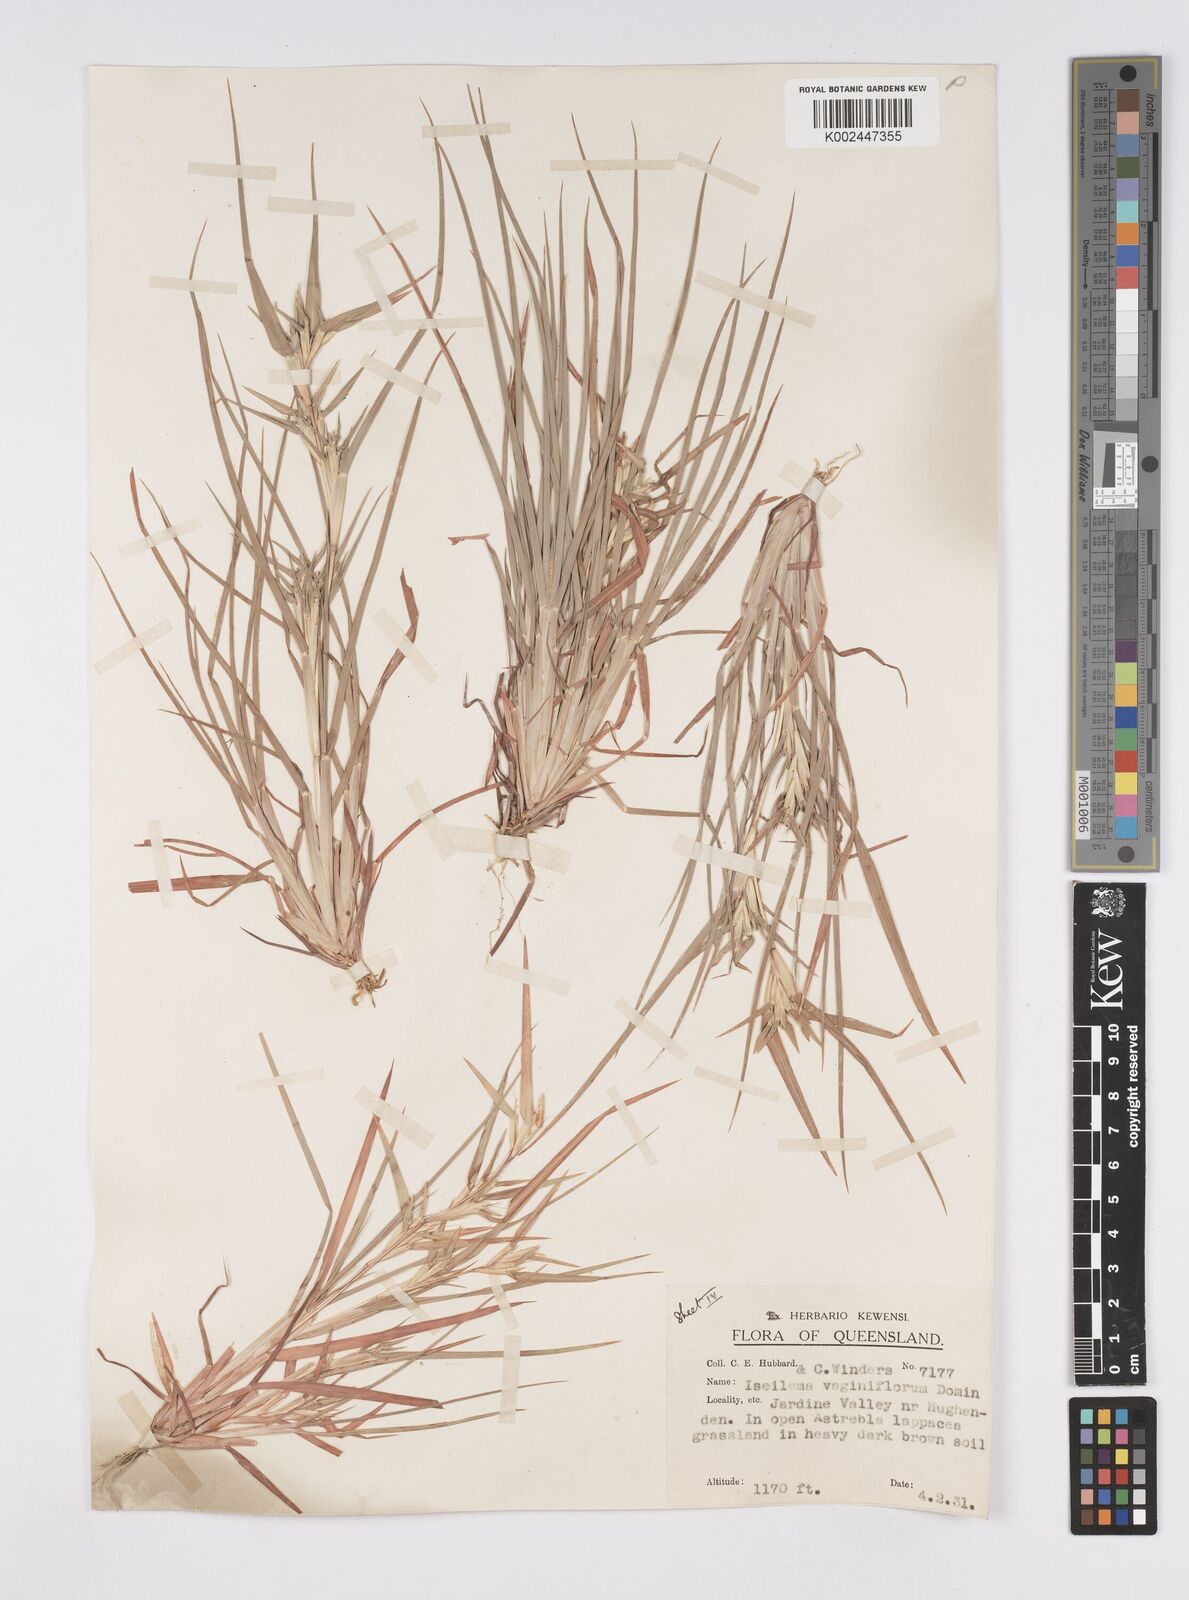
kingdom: Plantae
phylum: Tracheophyta
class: Liliopsida
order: Poales
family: Poaceae
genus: Iseilema
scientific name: Iseilema vaginiflorum
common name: Red flinders grass
